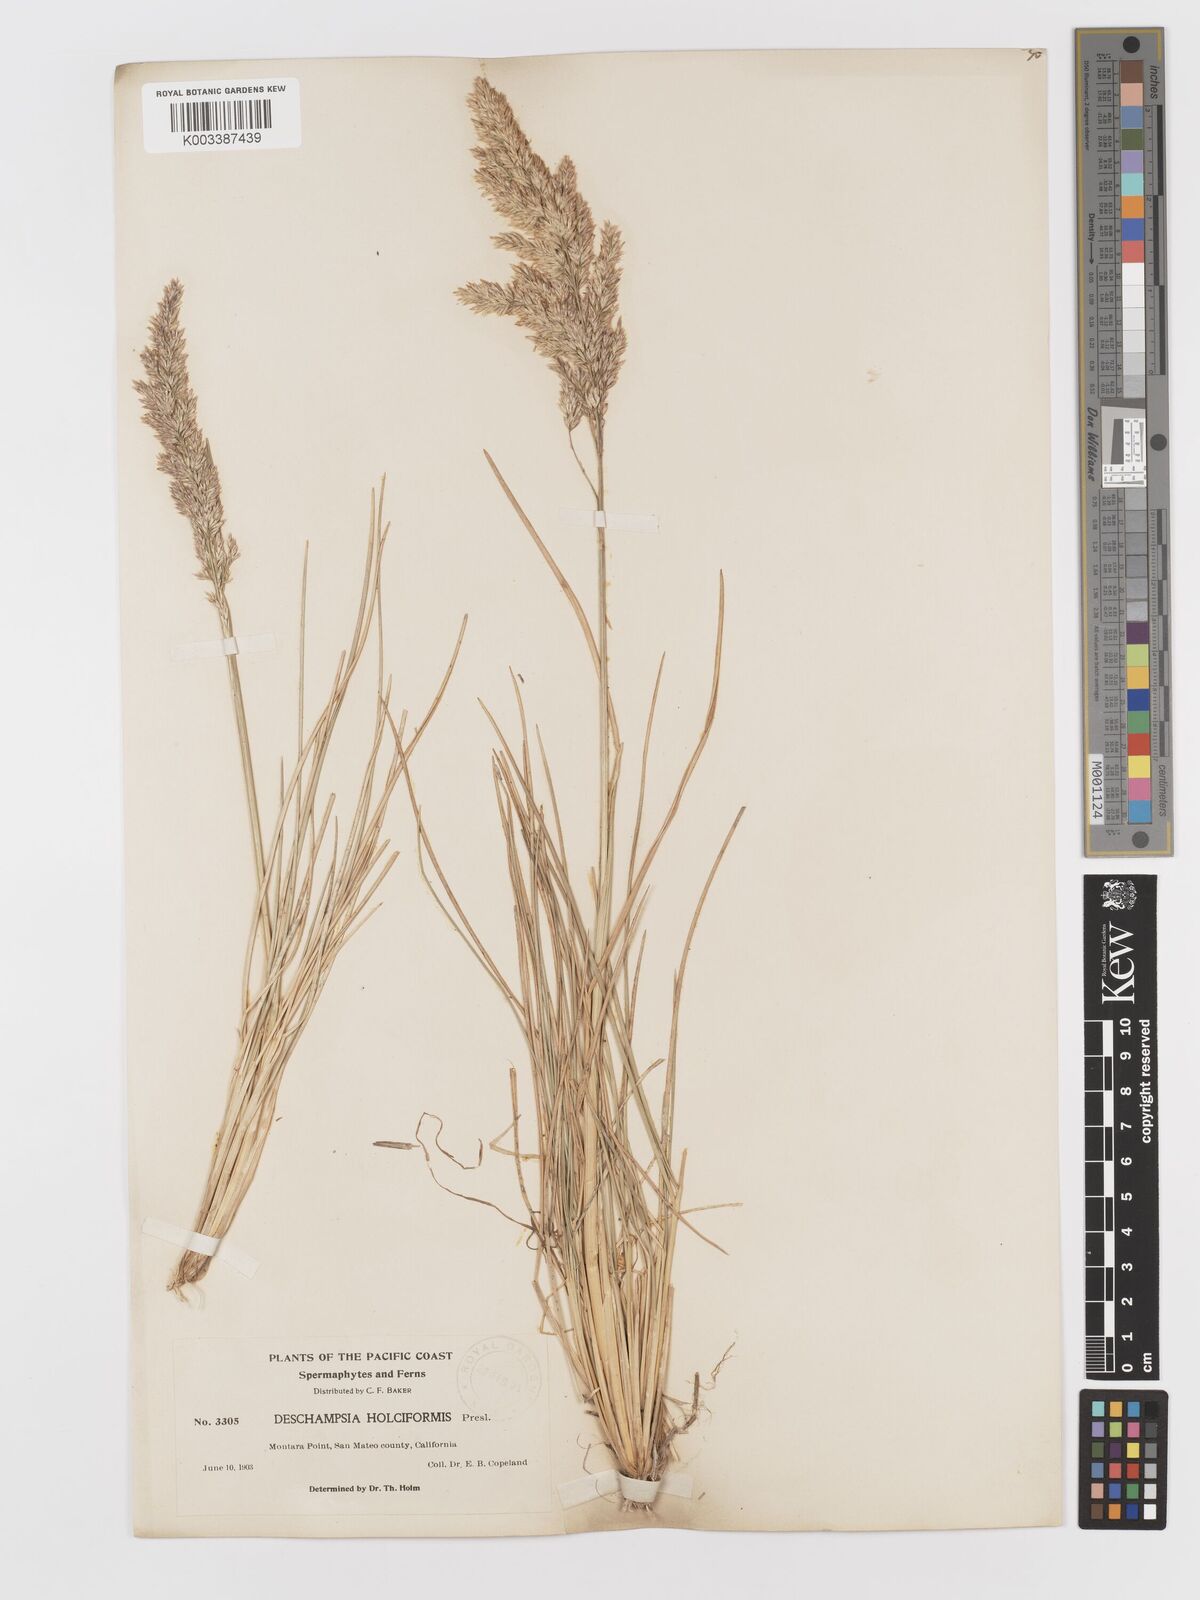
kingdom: Plantae
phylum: Tracheophyta
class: Liliopsida
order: Poales
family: Poaceae
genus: Deschampsia
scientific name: Deschampsia cespitosa
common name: Tufted hair-grass
